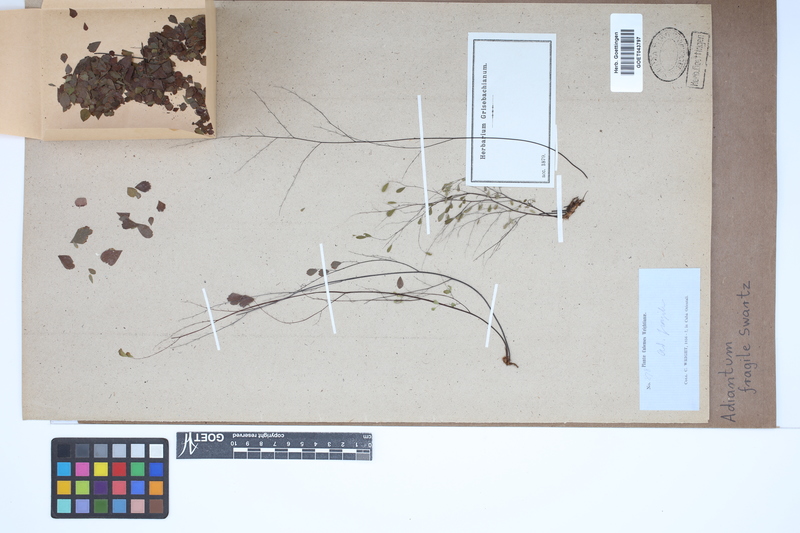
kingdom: Plantae
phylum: Tracheophyta
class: Polypodiopsida
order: Polypodiales
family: Pteridaceae
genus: Adiantum
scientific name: Adiantum fragile
